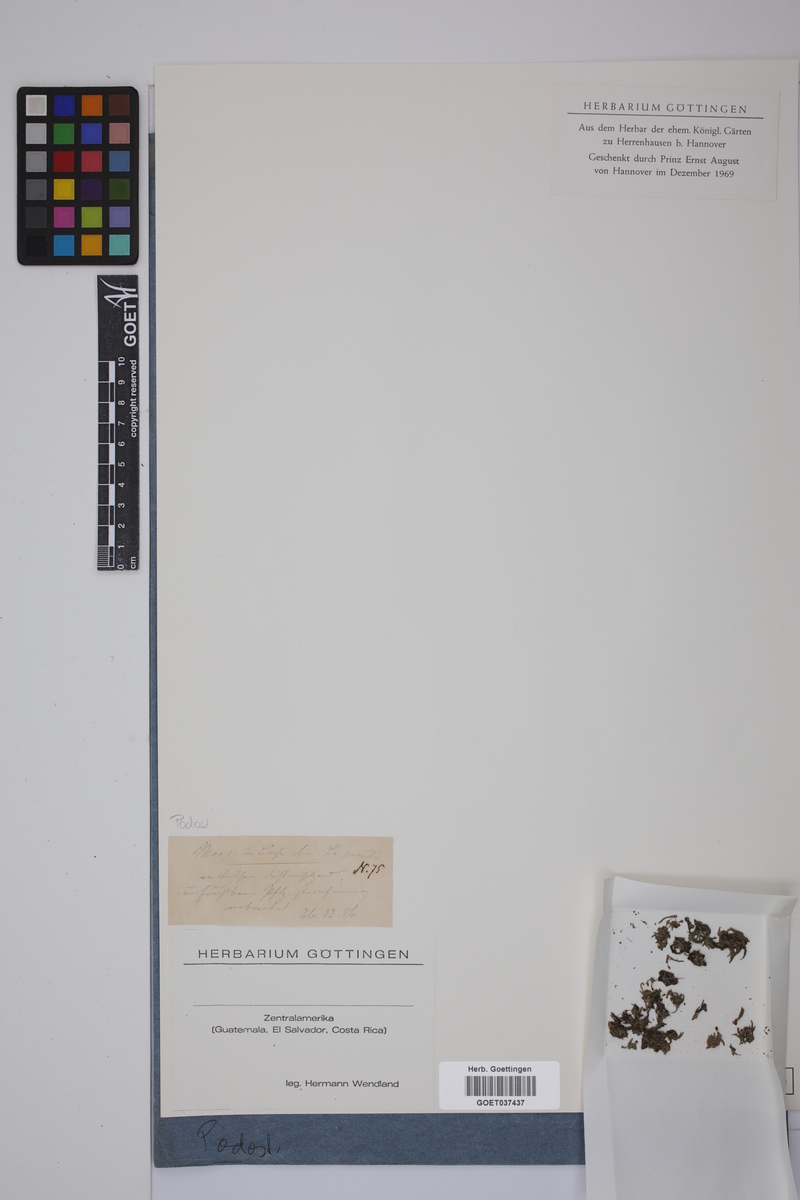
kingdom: Plantae
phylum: Tracheophyta
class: Magnoliopsida
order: Malpighiales
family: Podostemaceae
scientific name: Podostemaceae
